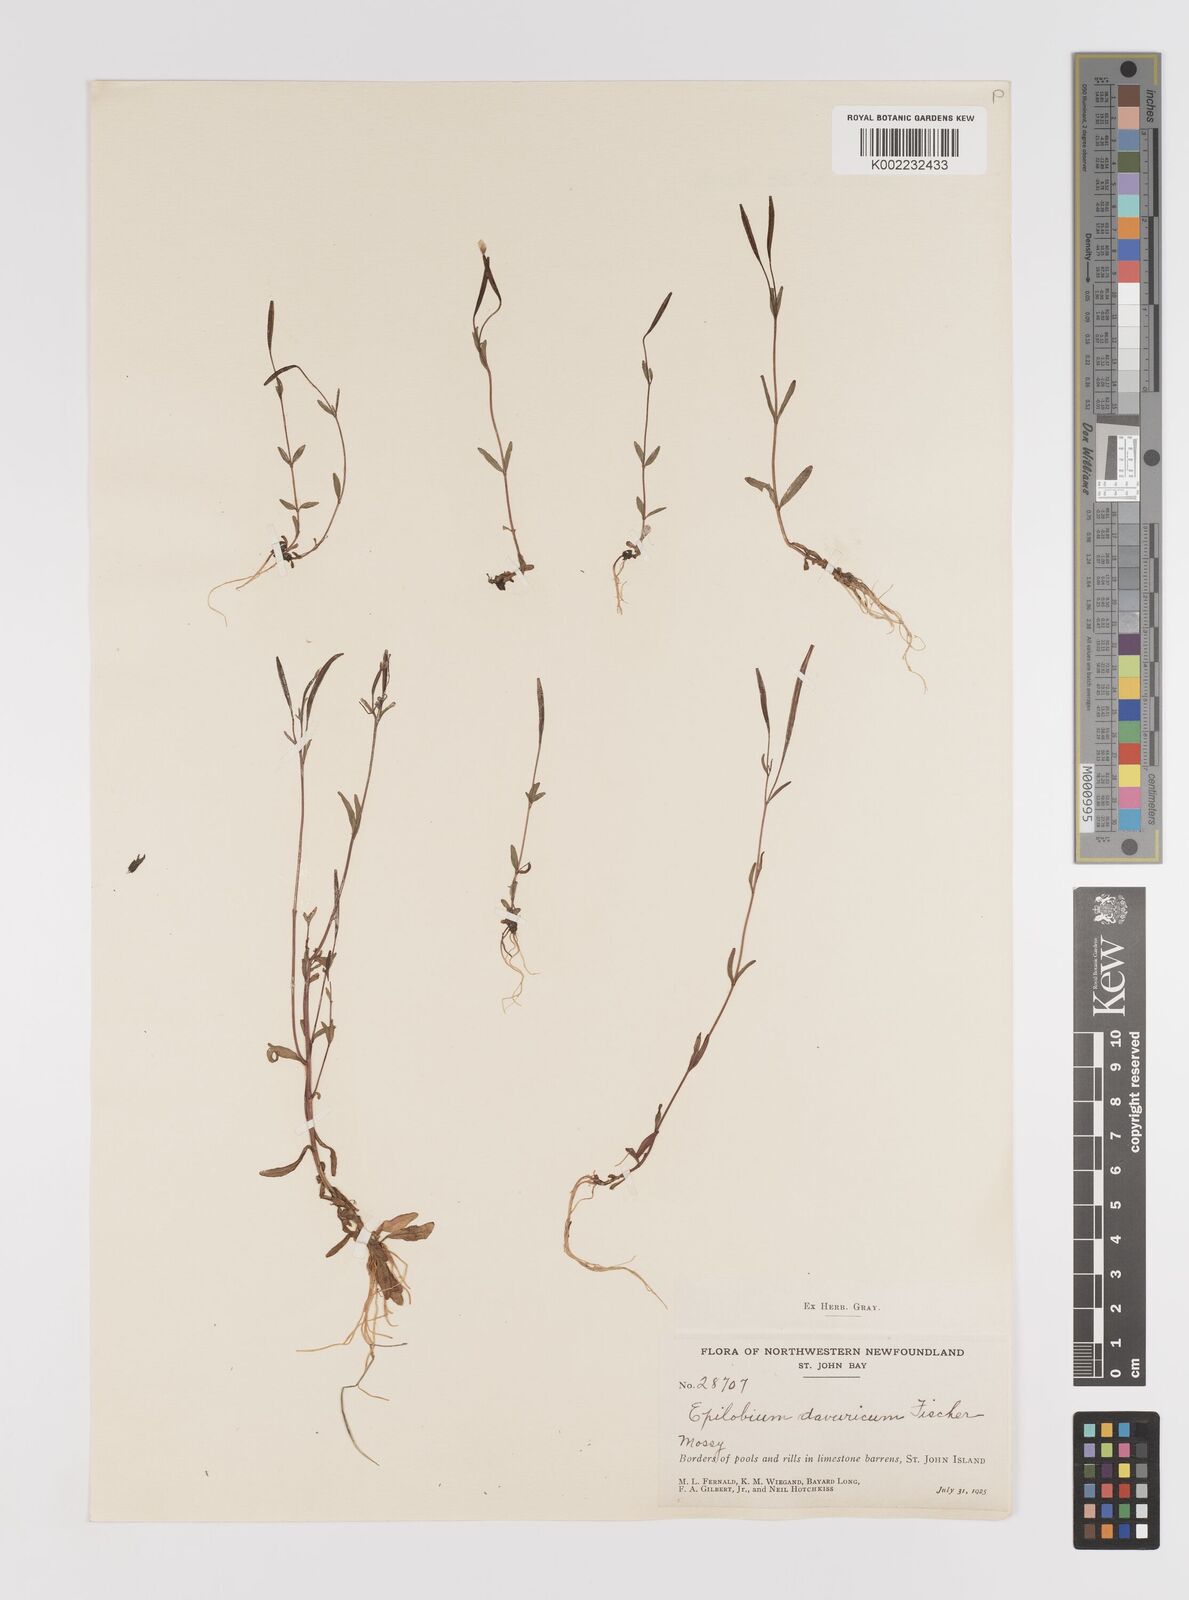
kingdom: Plantae
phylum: Tracheophyta
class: Magnoliopsida
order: Myrtales
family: Onagraceae
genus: Epilobium
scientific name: Epilobium davuricum
